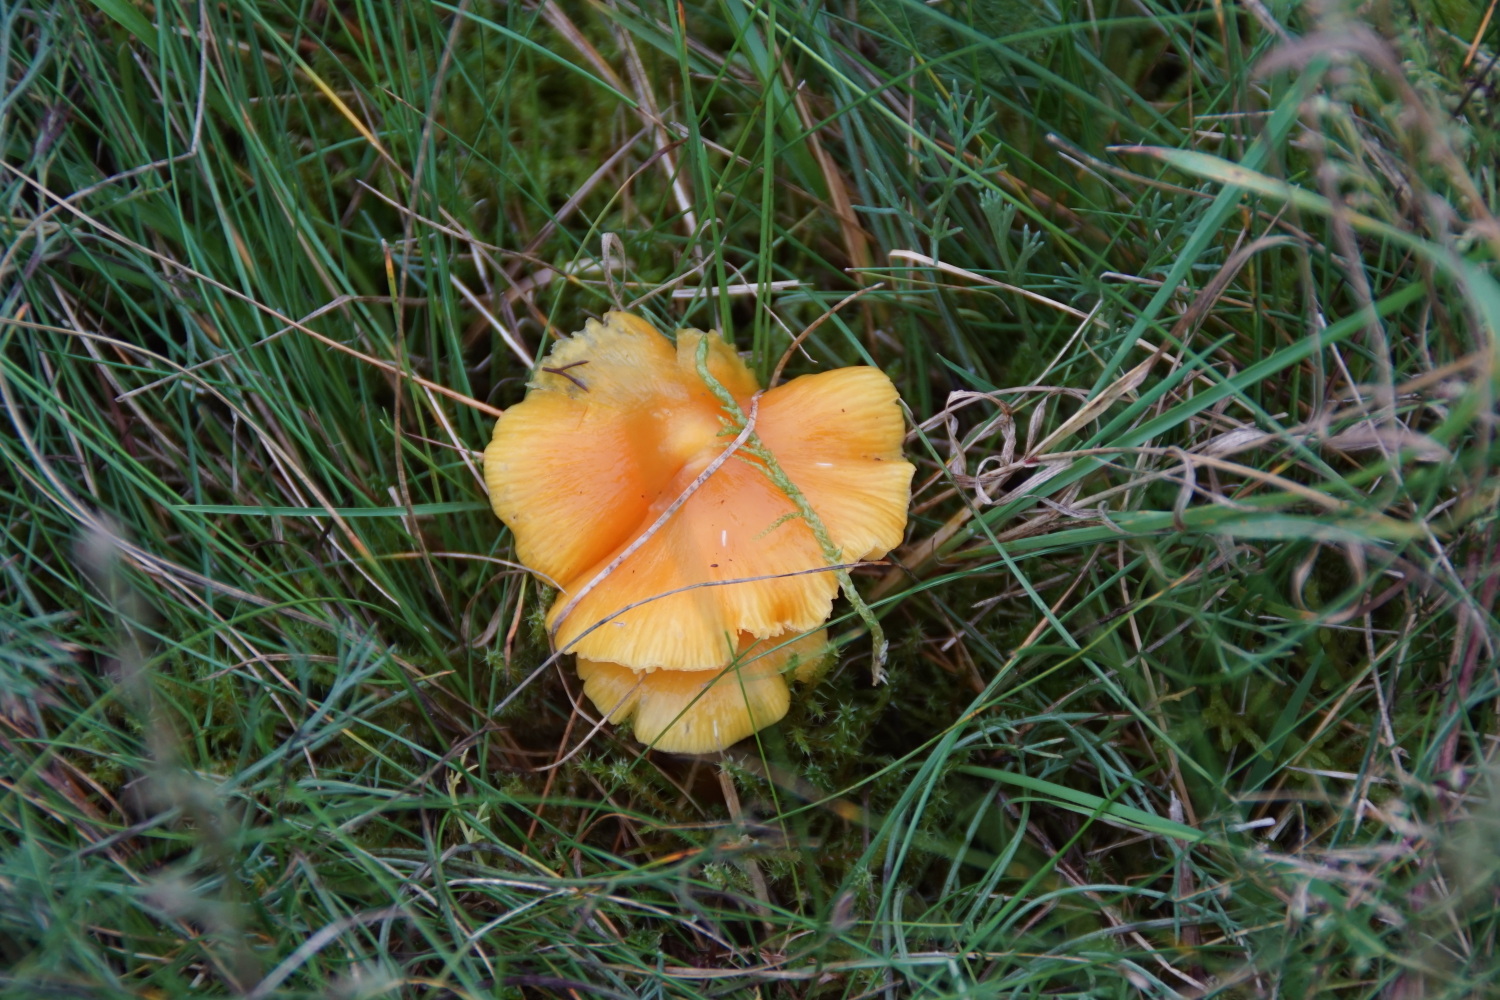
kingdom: Fungi
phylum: Basidiomycota
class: Agaricomycetes
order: Agaricales
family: Hygrophoraceae
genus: Hygrocybe
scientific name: Hygrocybe acutoconica
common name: spidspuklet vokshat
